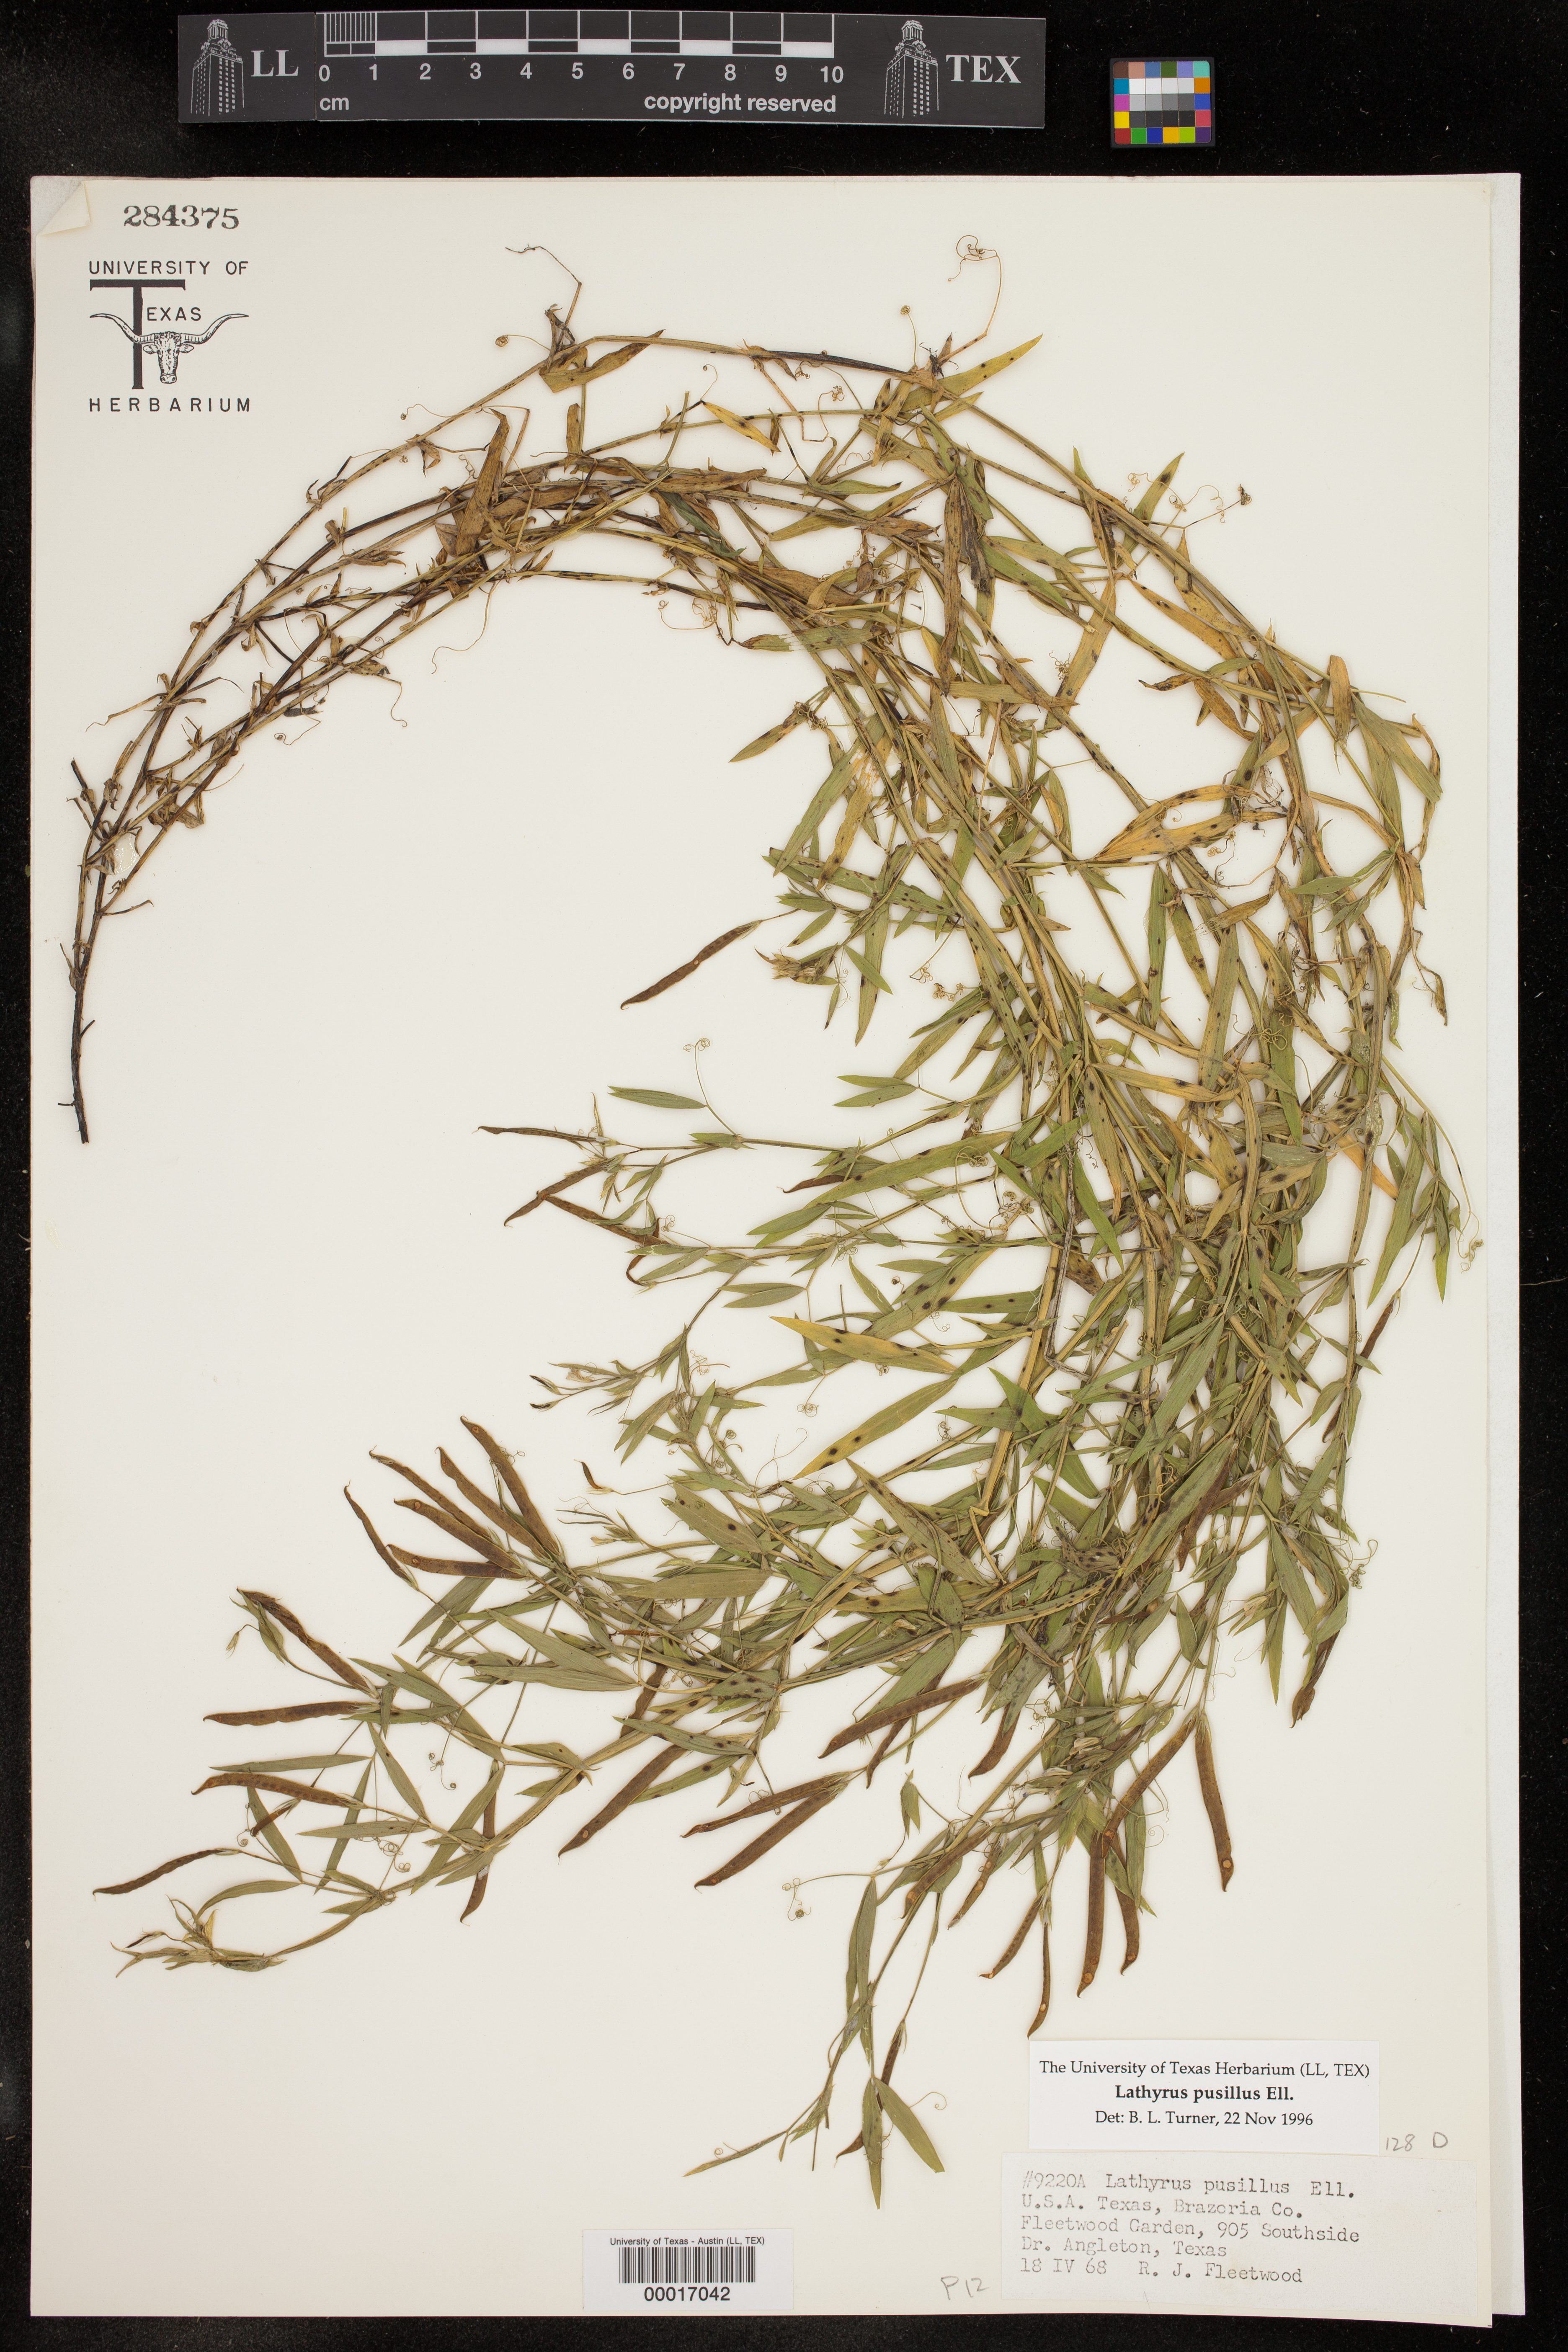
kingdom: Plantae
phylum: Tracheophyta
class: Magnoliopsida
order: Fabales
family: Fabaceae
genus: Lathyrus
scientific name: Lathyrus pusillus
